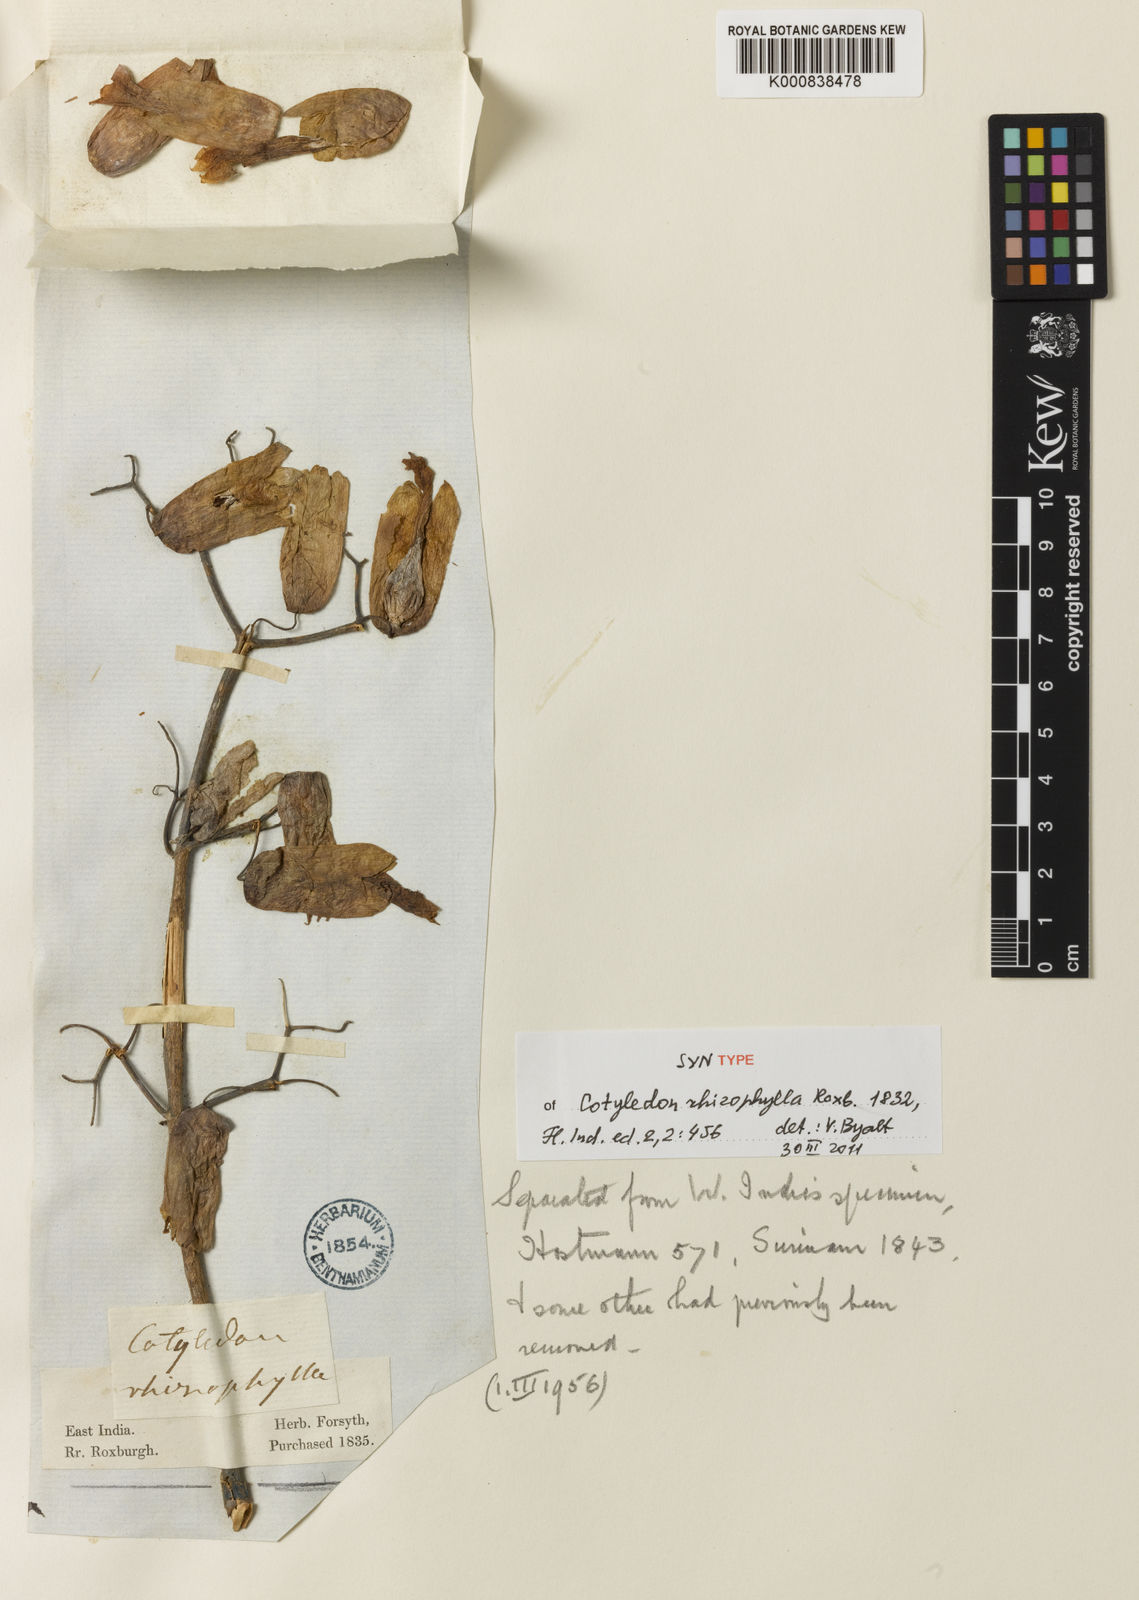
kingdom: Plantae
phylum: Tracheophyta
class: Magnoliopsida
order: Saxifragales
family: Crassulaceae
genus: Kalanchoe
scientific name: Kalanchoe pinnata
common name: Cathedral bells
